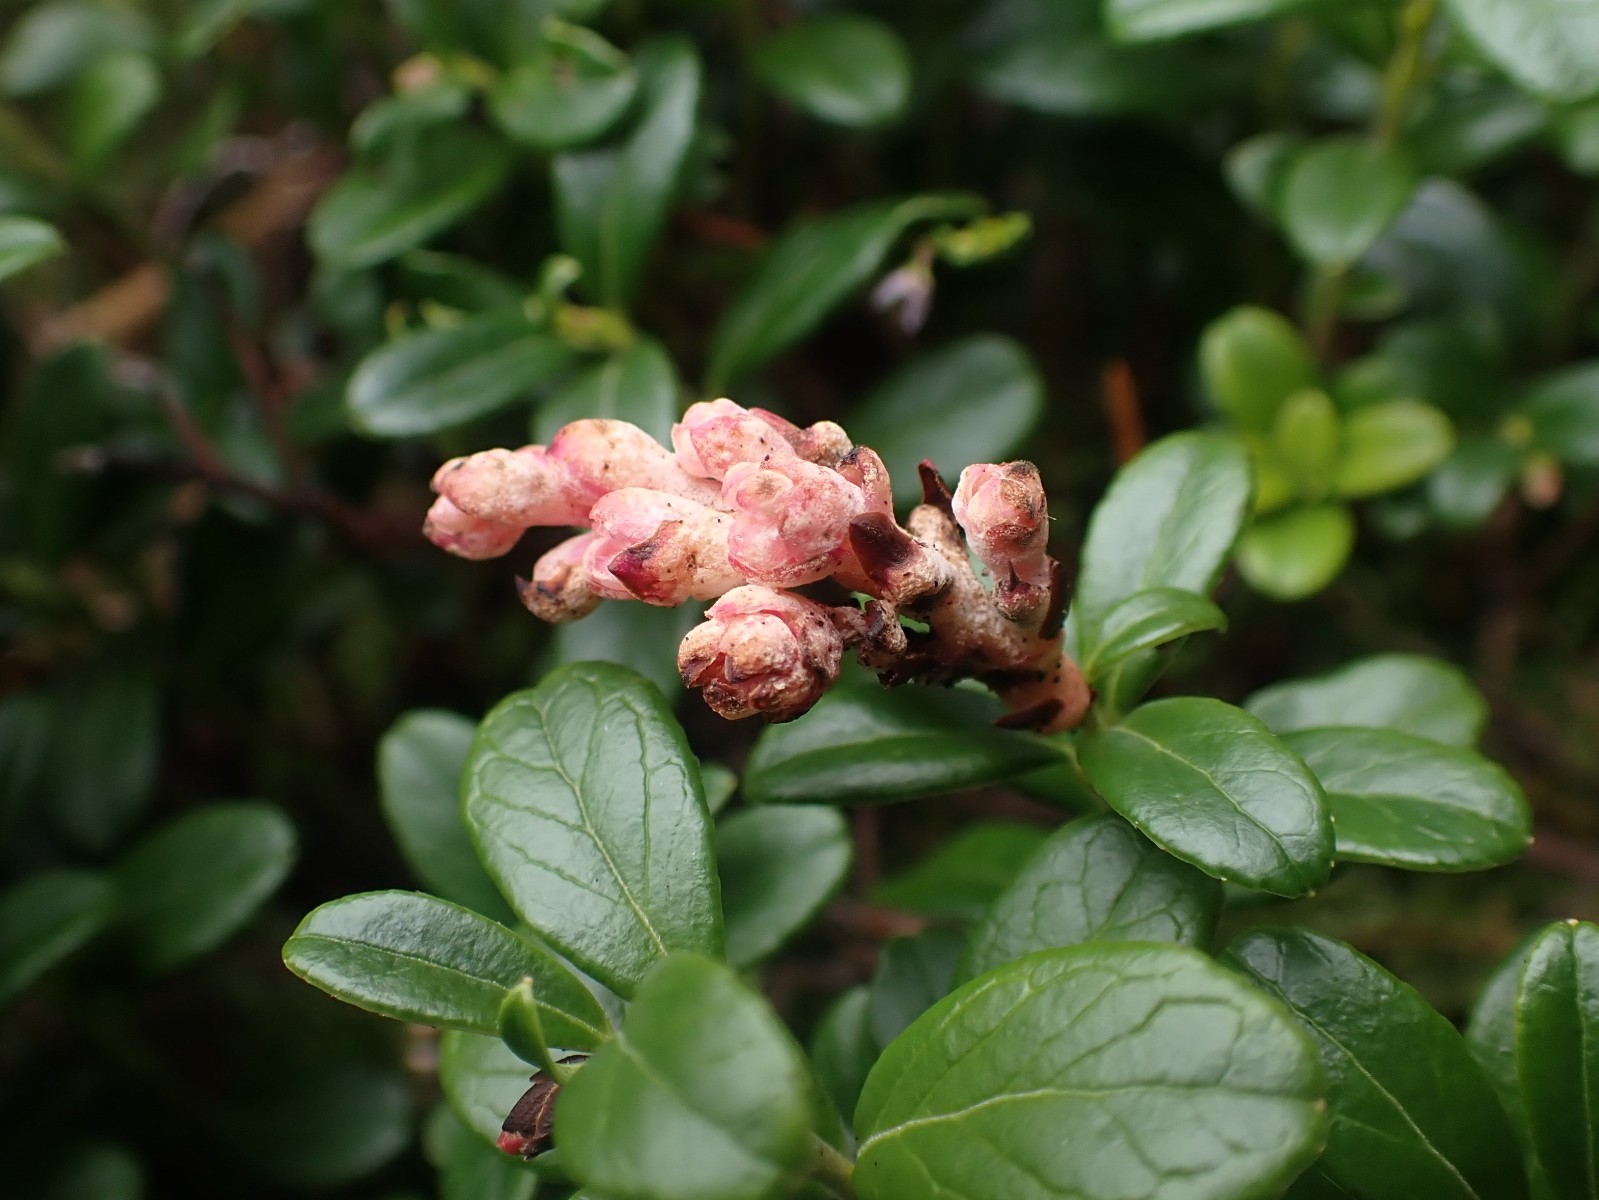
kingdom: Fungi
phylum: Basidiomycota
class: Exobasidiomycetes
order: Exobasidiales
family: Exobasidiaceae
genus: Exobasidium
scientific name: Exobasidium vaccinii
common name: tyttebærblad-bøllesvamp
